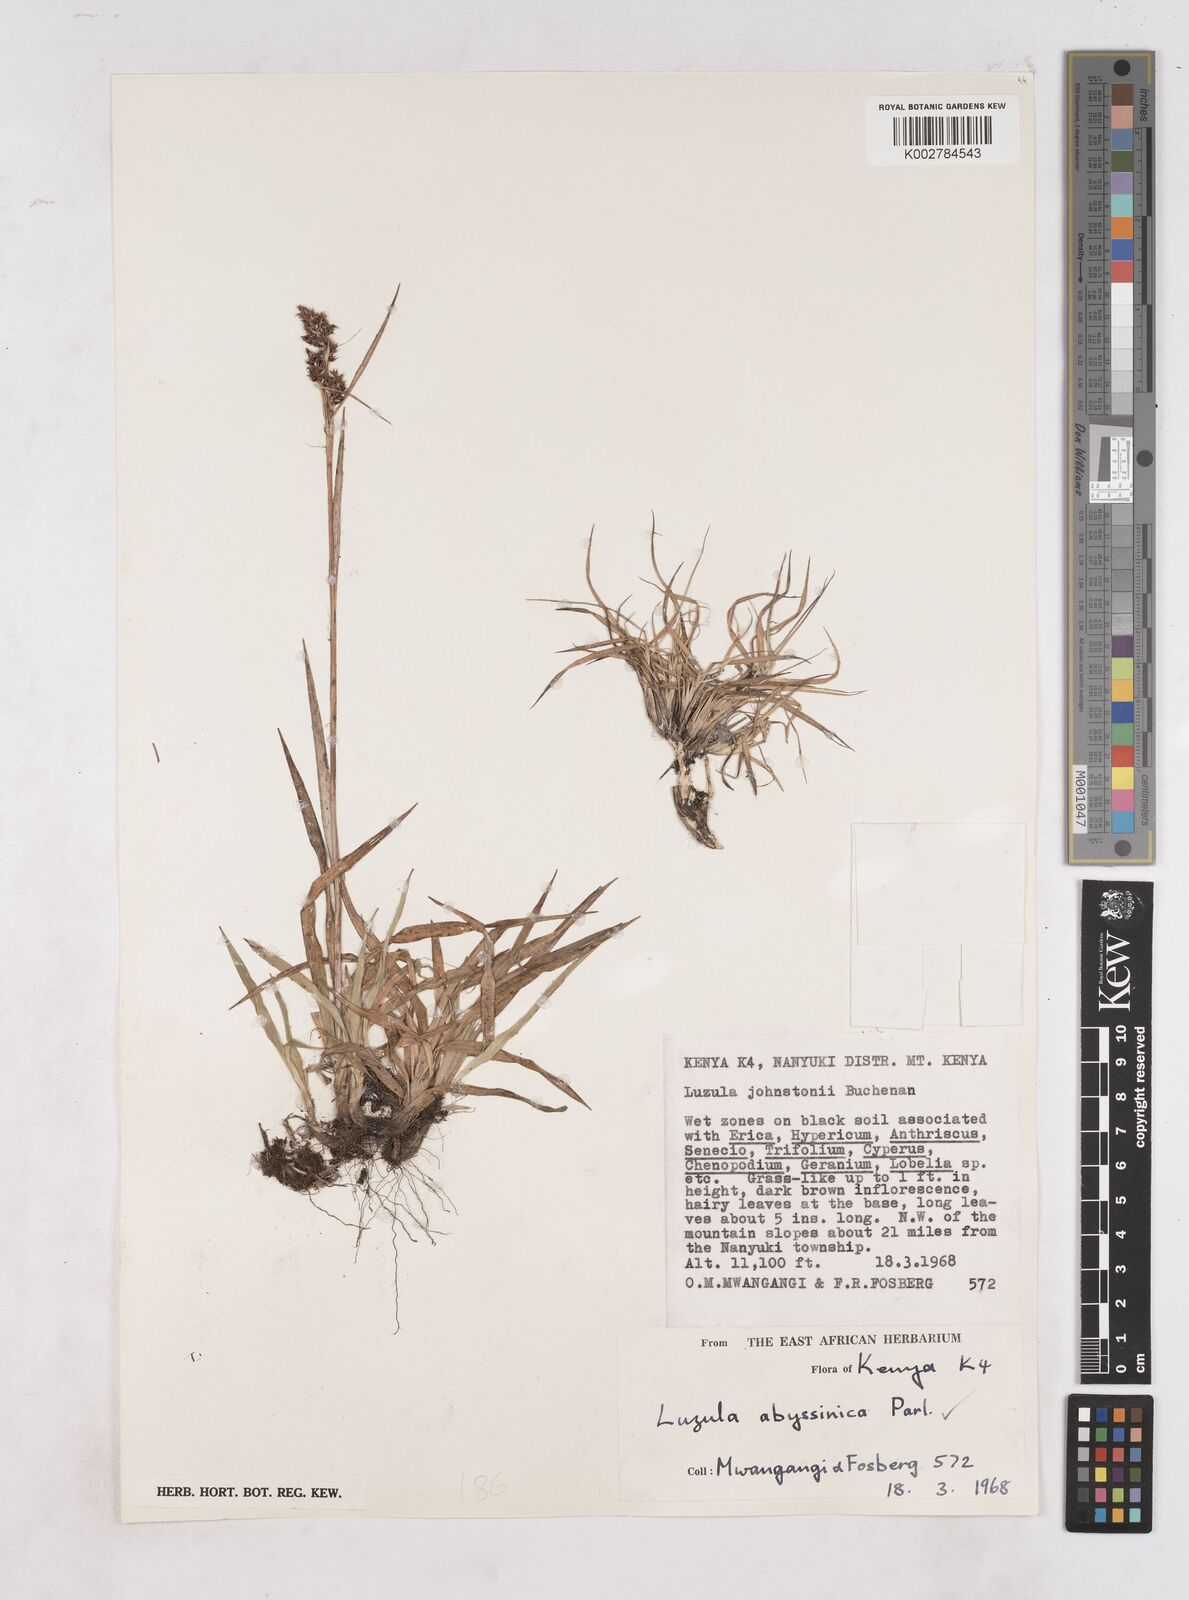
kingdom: Plantae
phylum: Tracheophyta
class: Liliopsida
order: Poales
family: Juncaceae
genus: Luzula
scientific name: Luzula abyssinica
